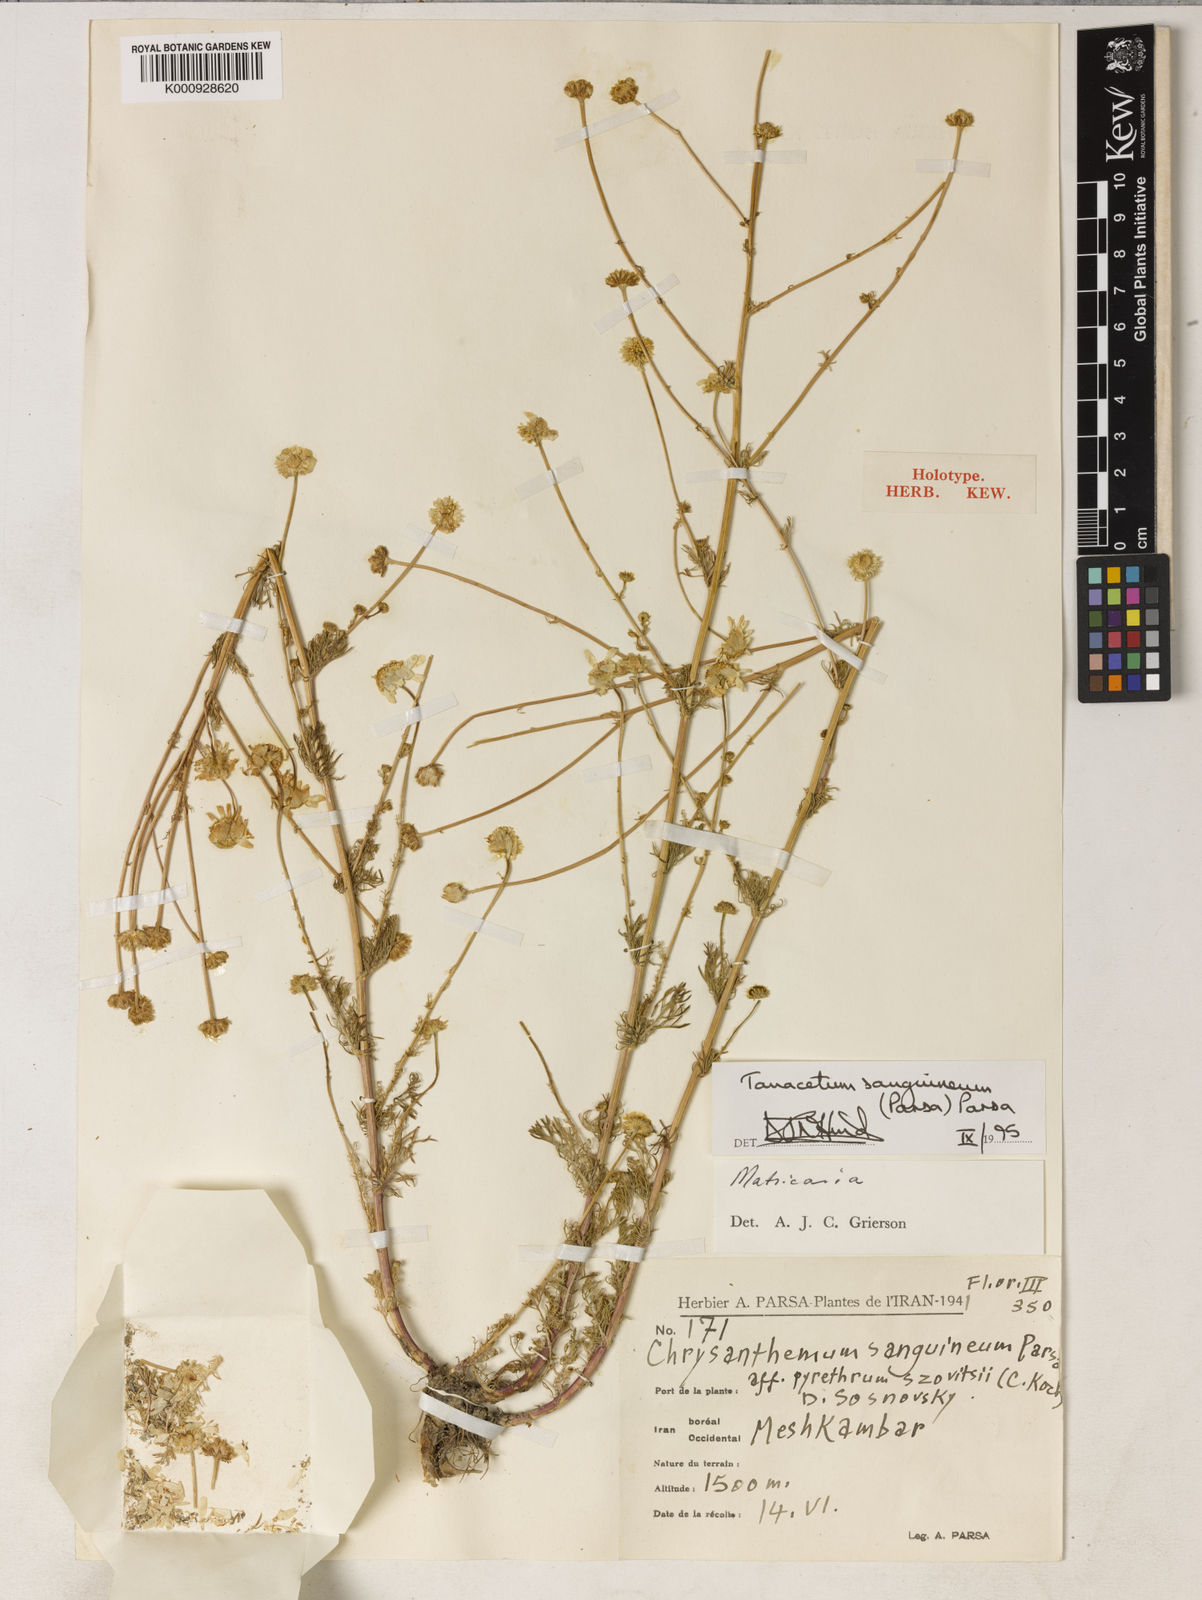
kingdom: Plantae
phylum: Tracheophyta
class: Magnoliopsida
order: Asterales
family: Asteraceae
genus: Tanacetum
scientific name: Tanacetum sanguineum
